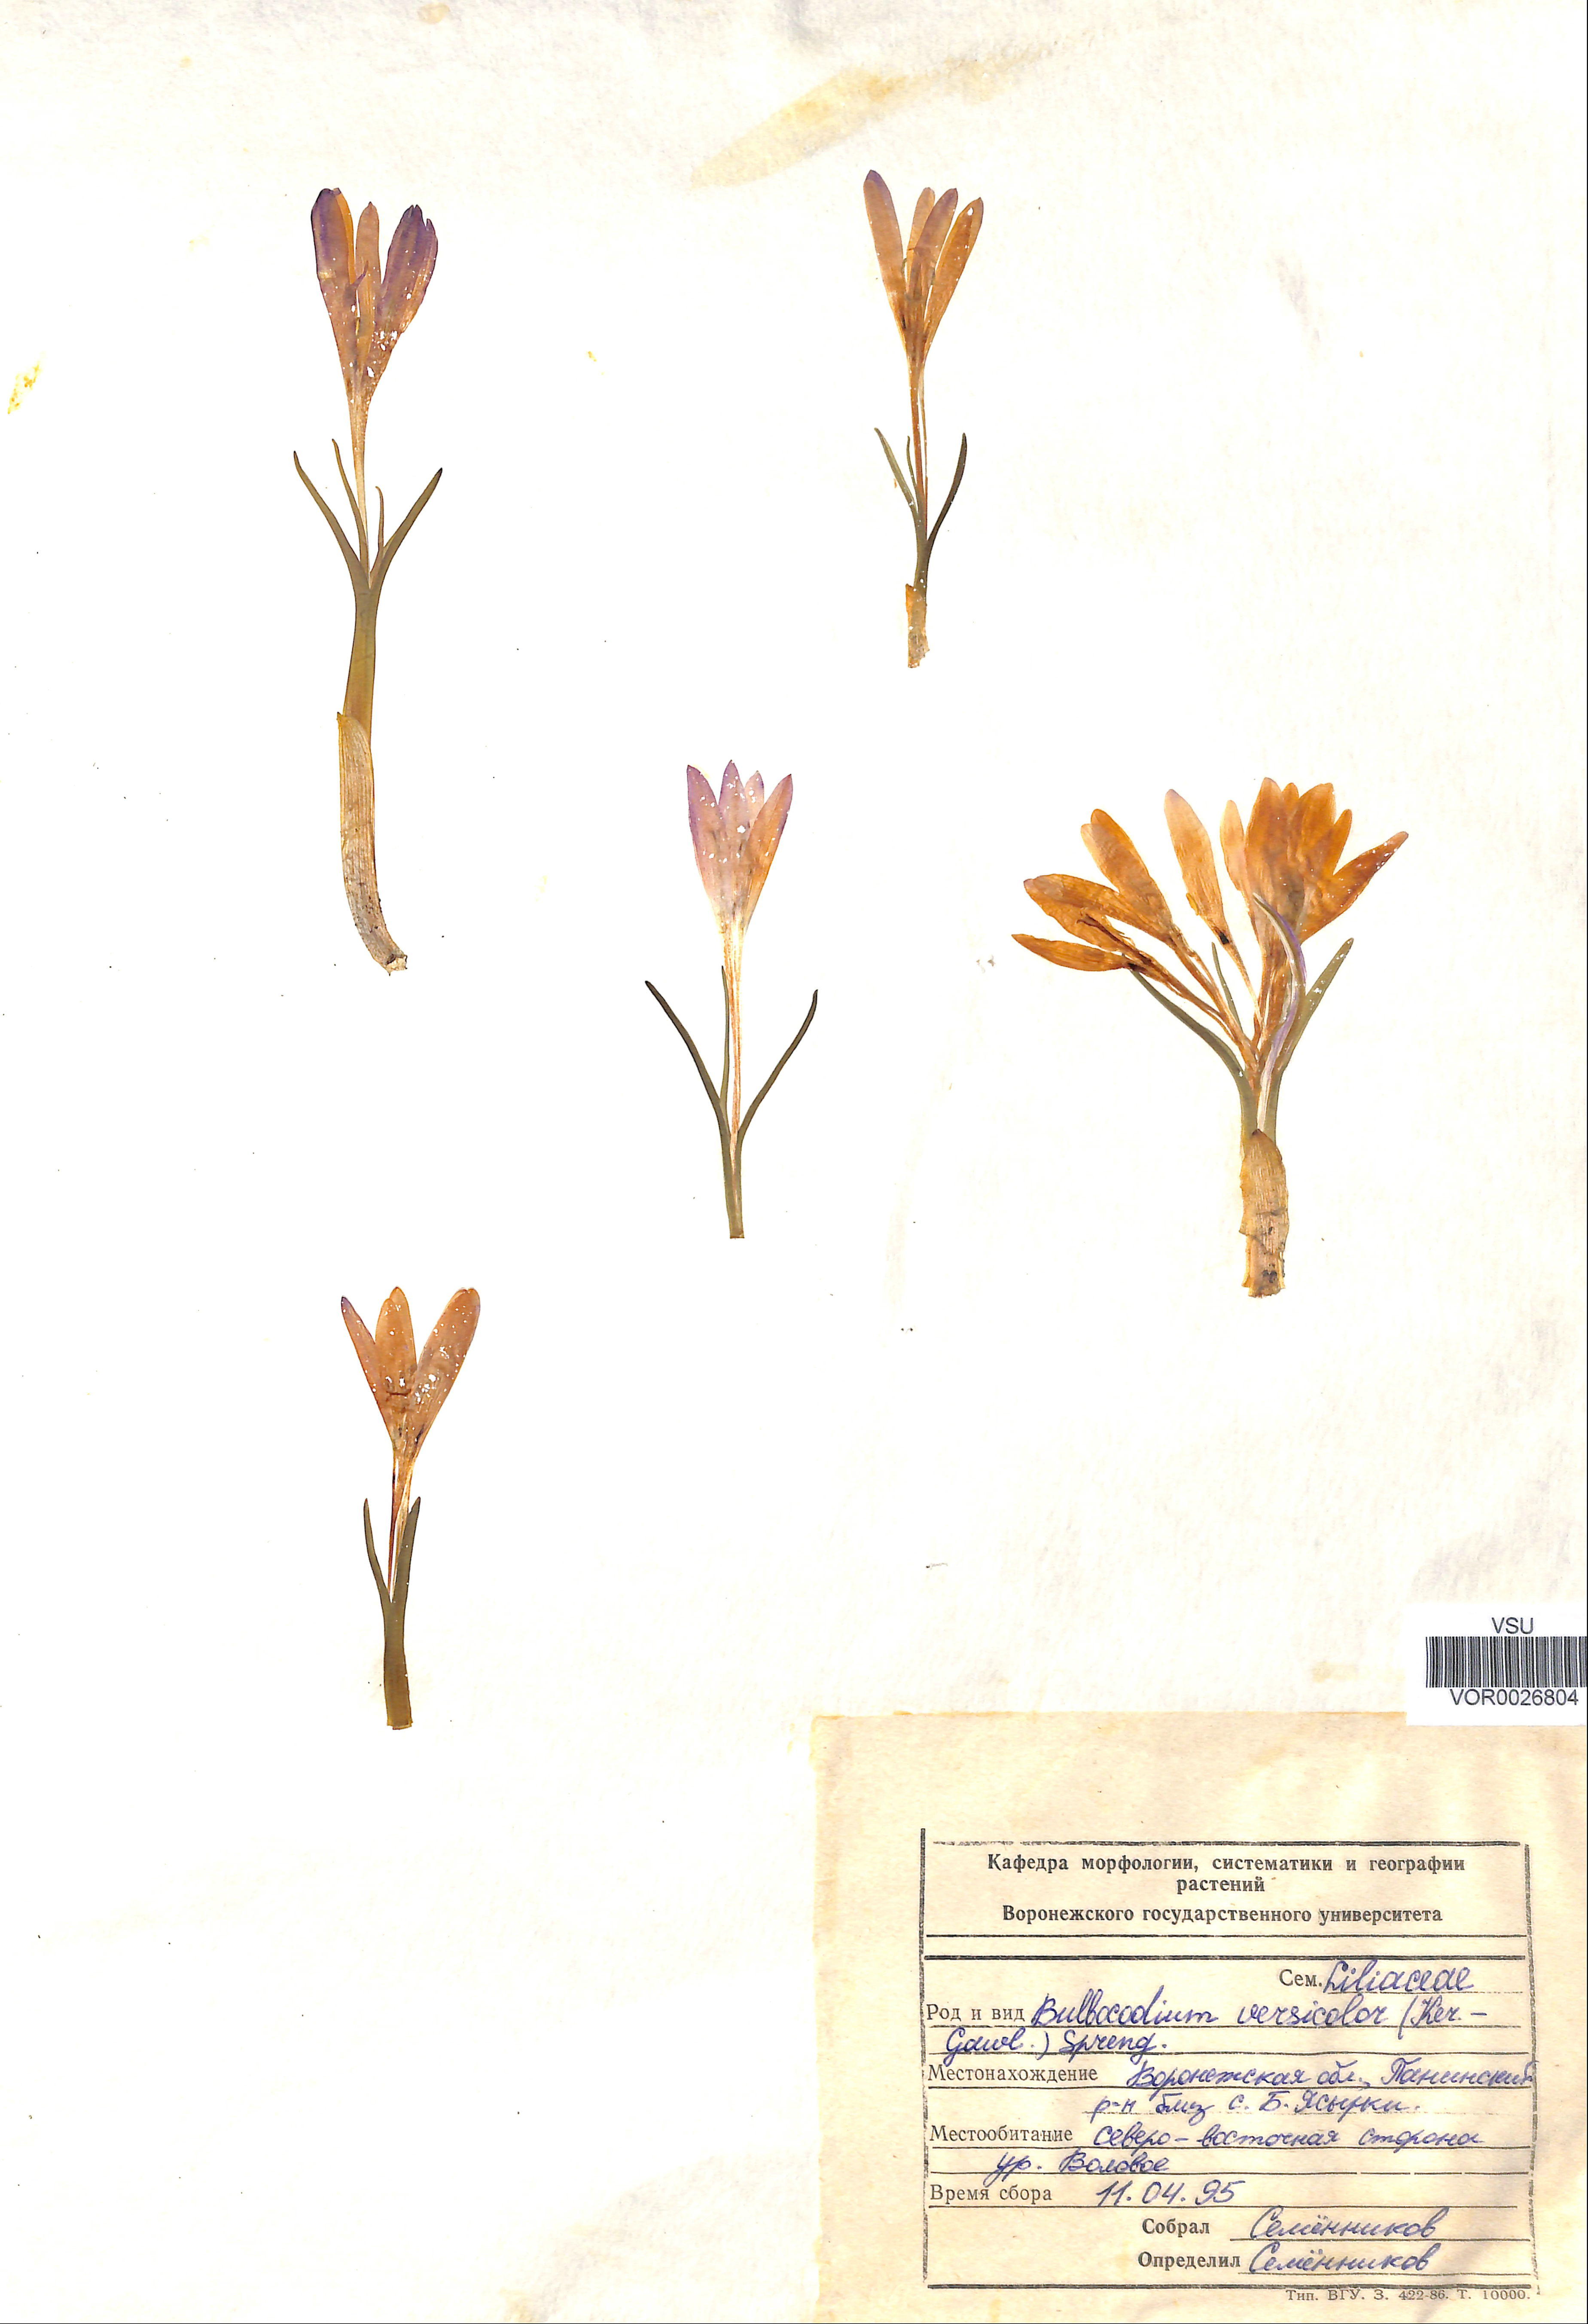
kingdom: Plantae
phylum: Tracheophyta
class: Liliopsida
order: Liliales
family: Colchicaceae
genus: Colchicum
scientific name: Colchicum bulbocodium
